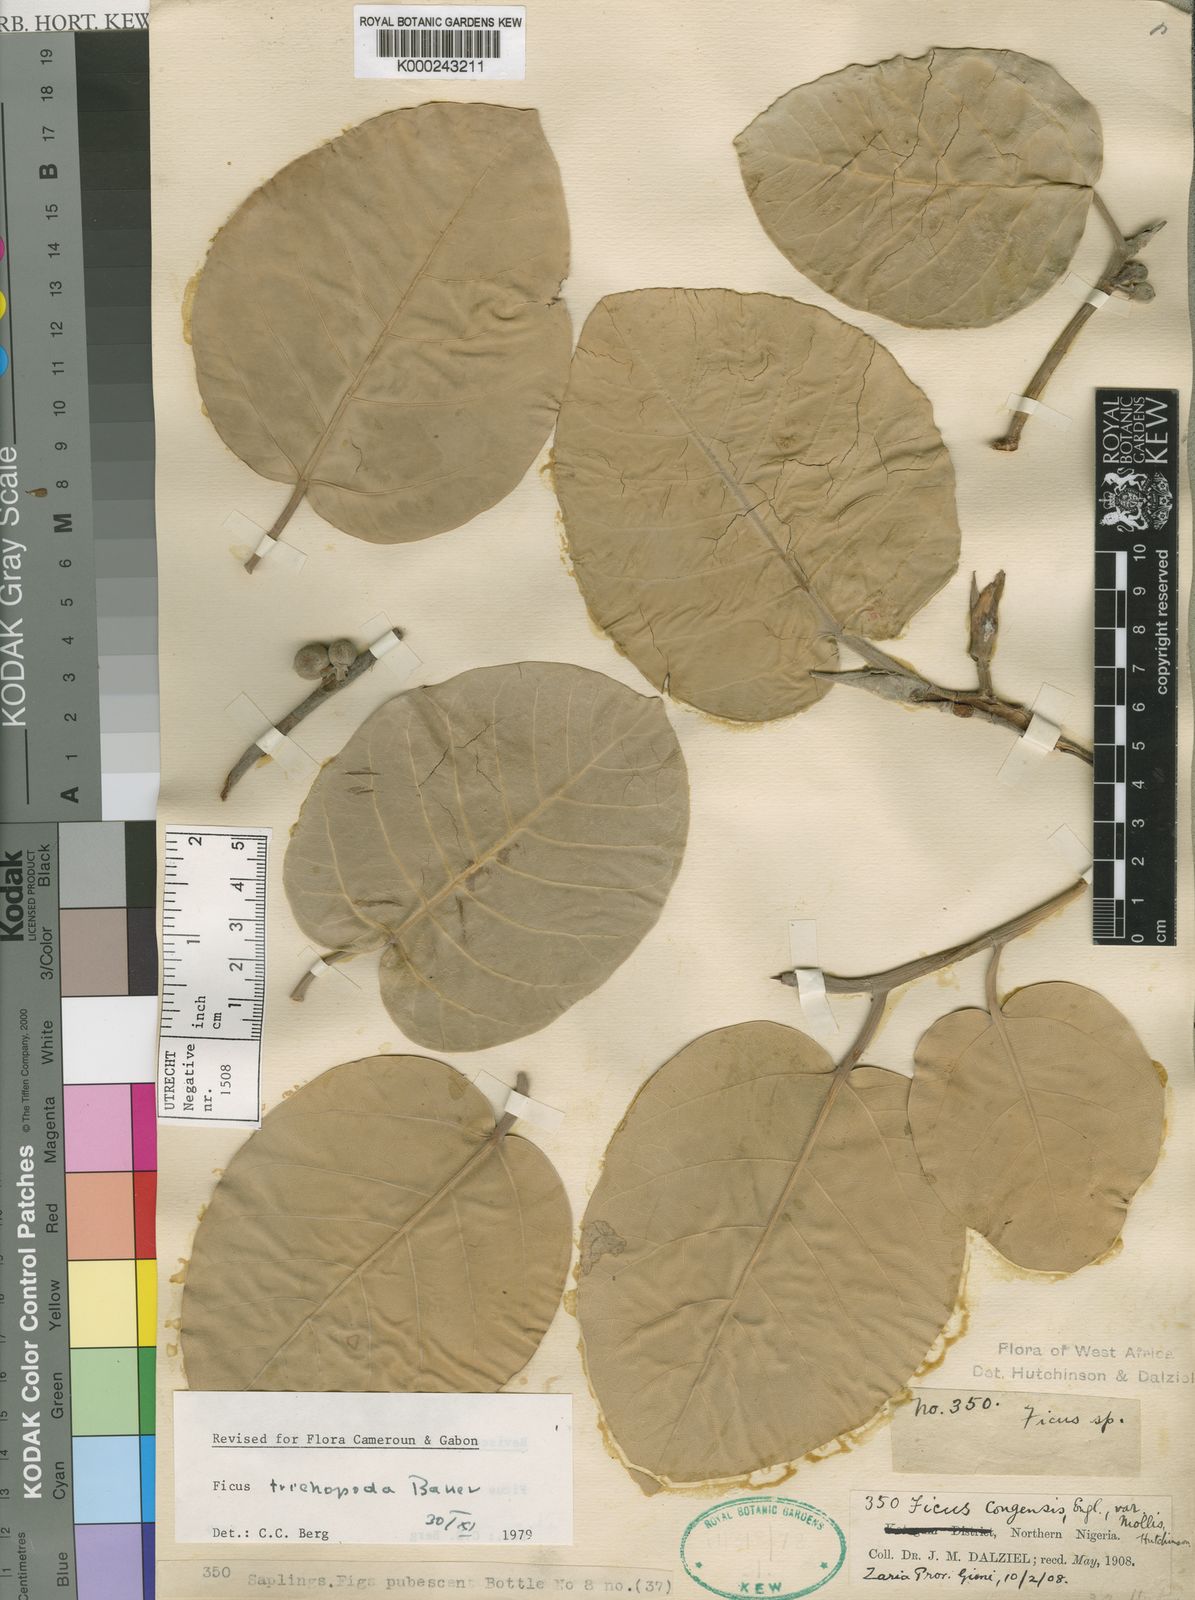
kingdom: Plantae
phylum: Tracheophyta
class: Magnoliopsida
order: Rosales
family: Moraceae
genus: Ficus
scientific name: Ficus trichopoda
